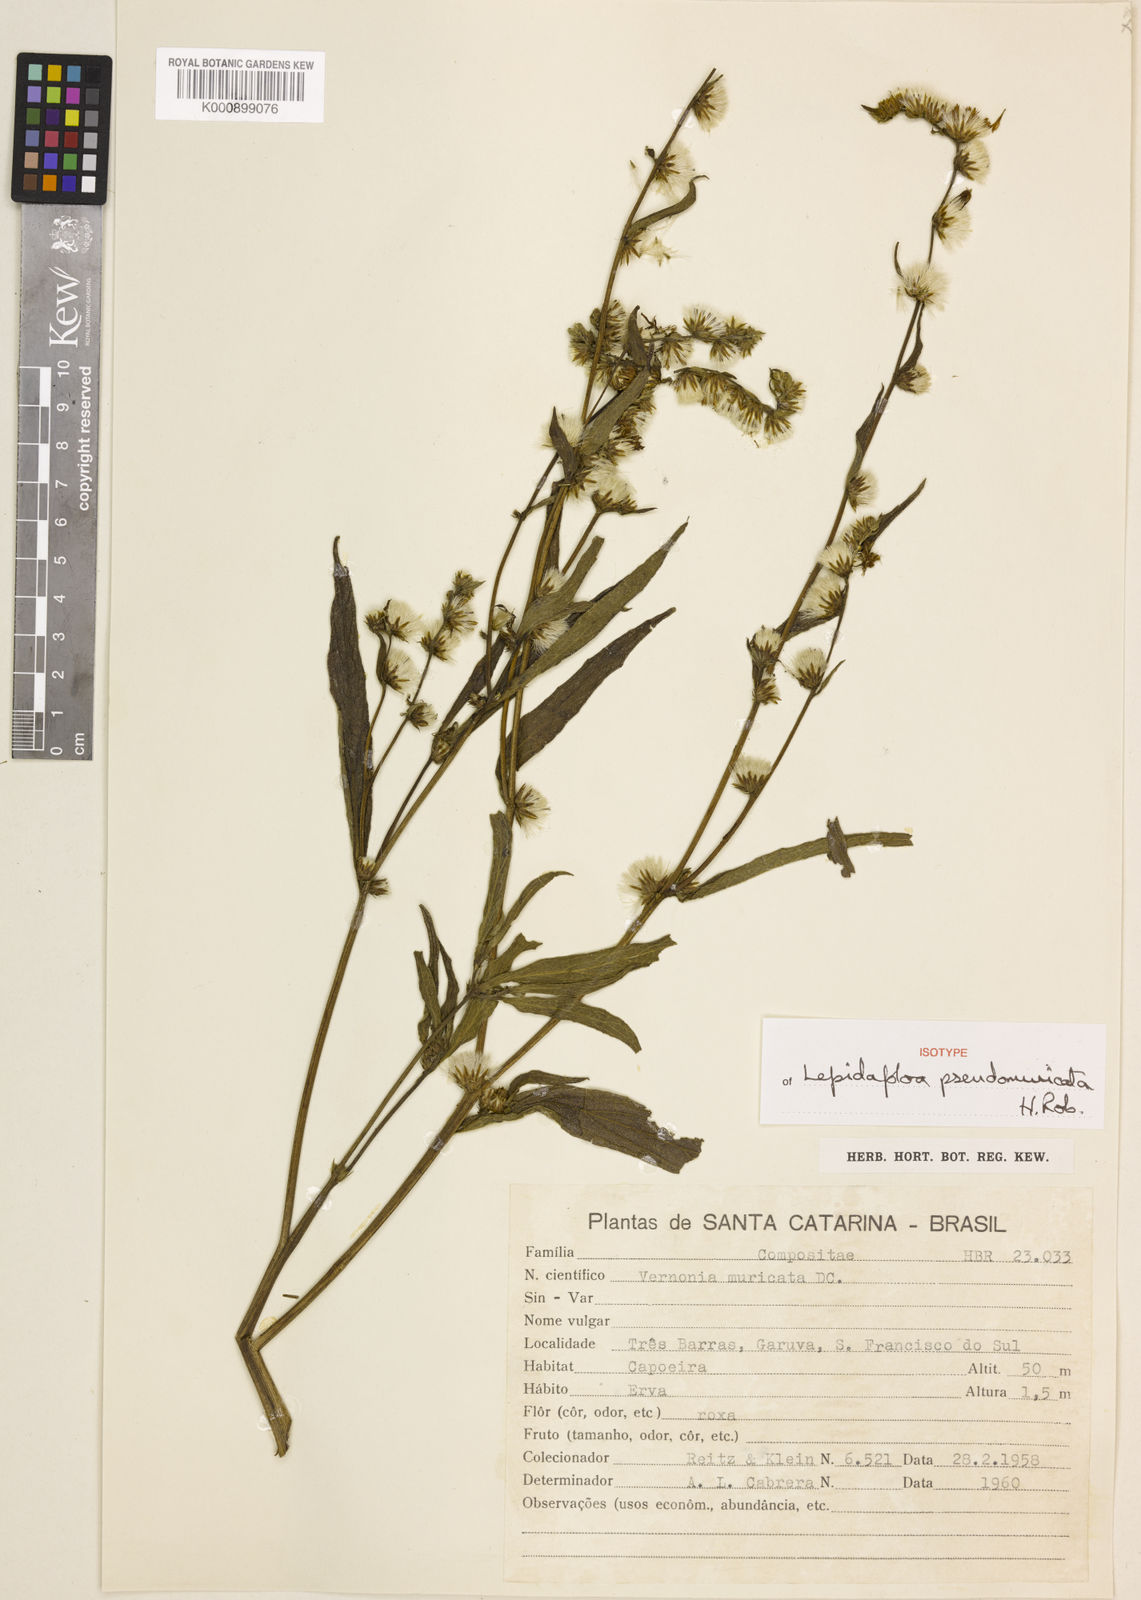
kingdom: Plantae
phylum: Tracheophyta
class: Magnoliopsida
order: Asterales
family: Asteraceae
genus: Lepidaploa
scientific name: Lepidaploa muricata
